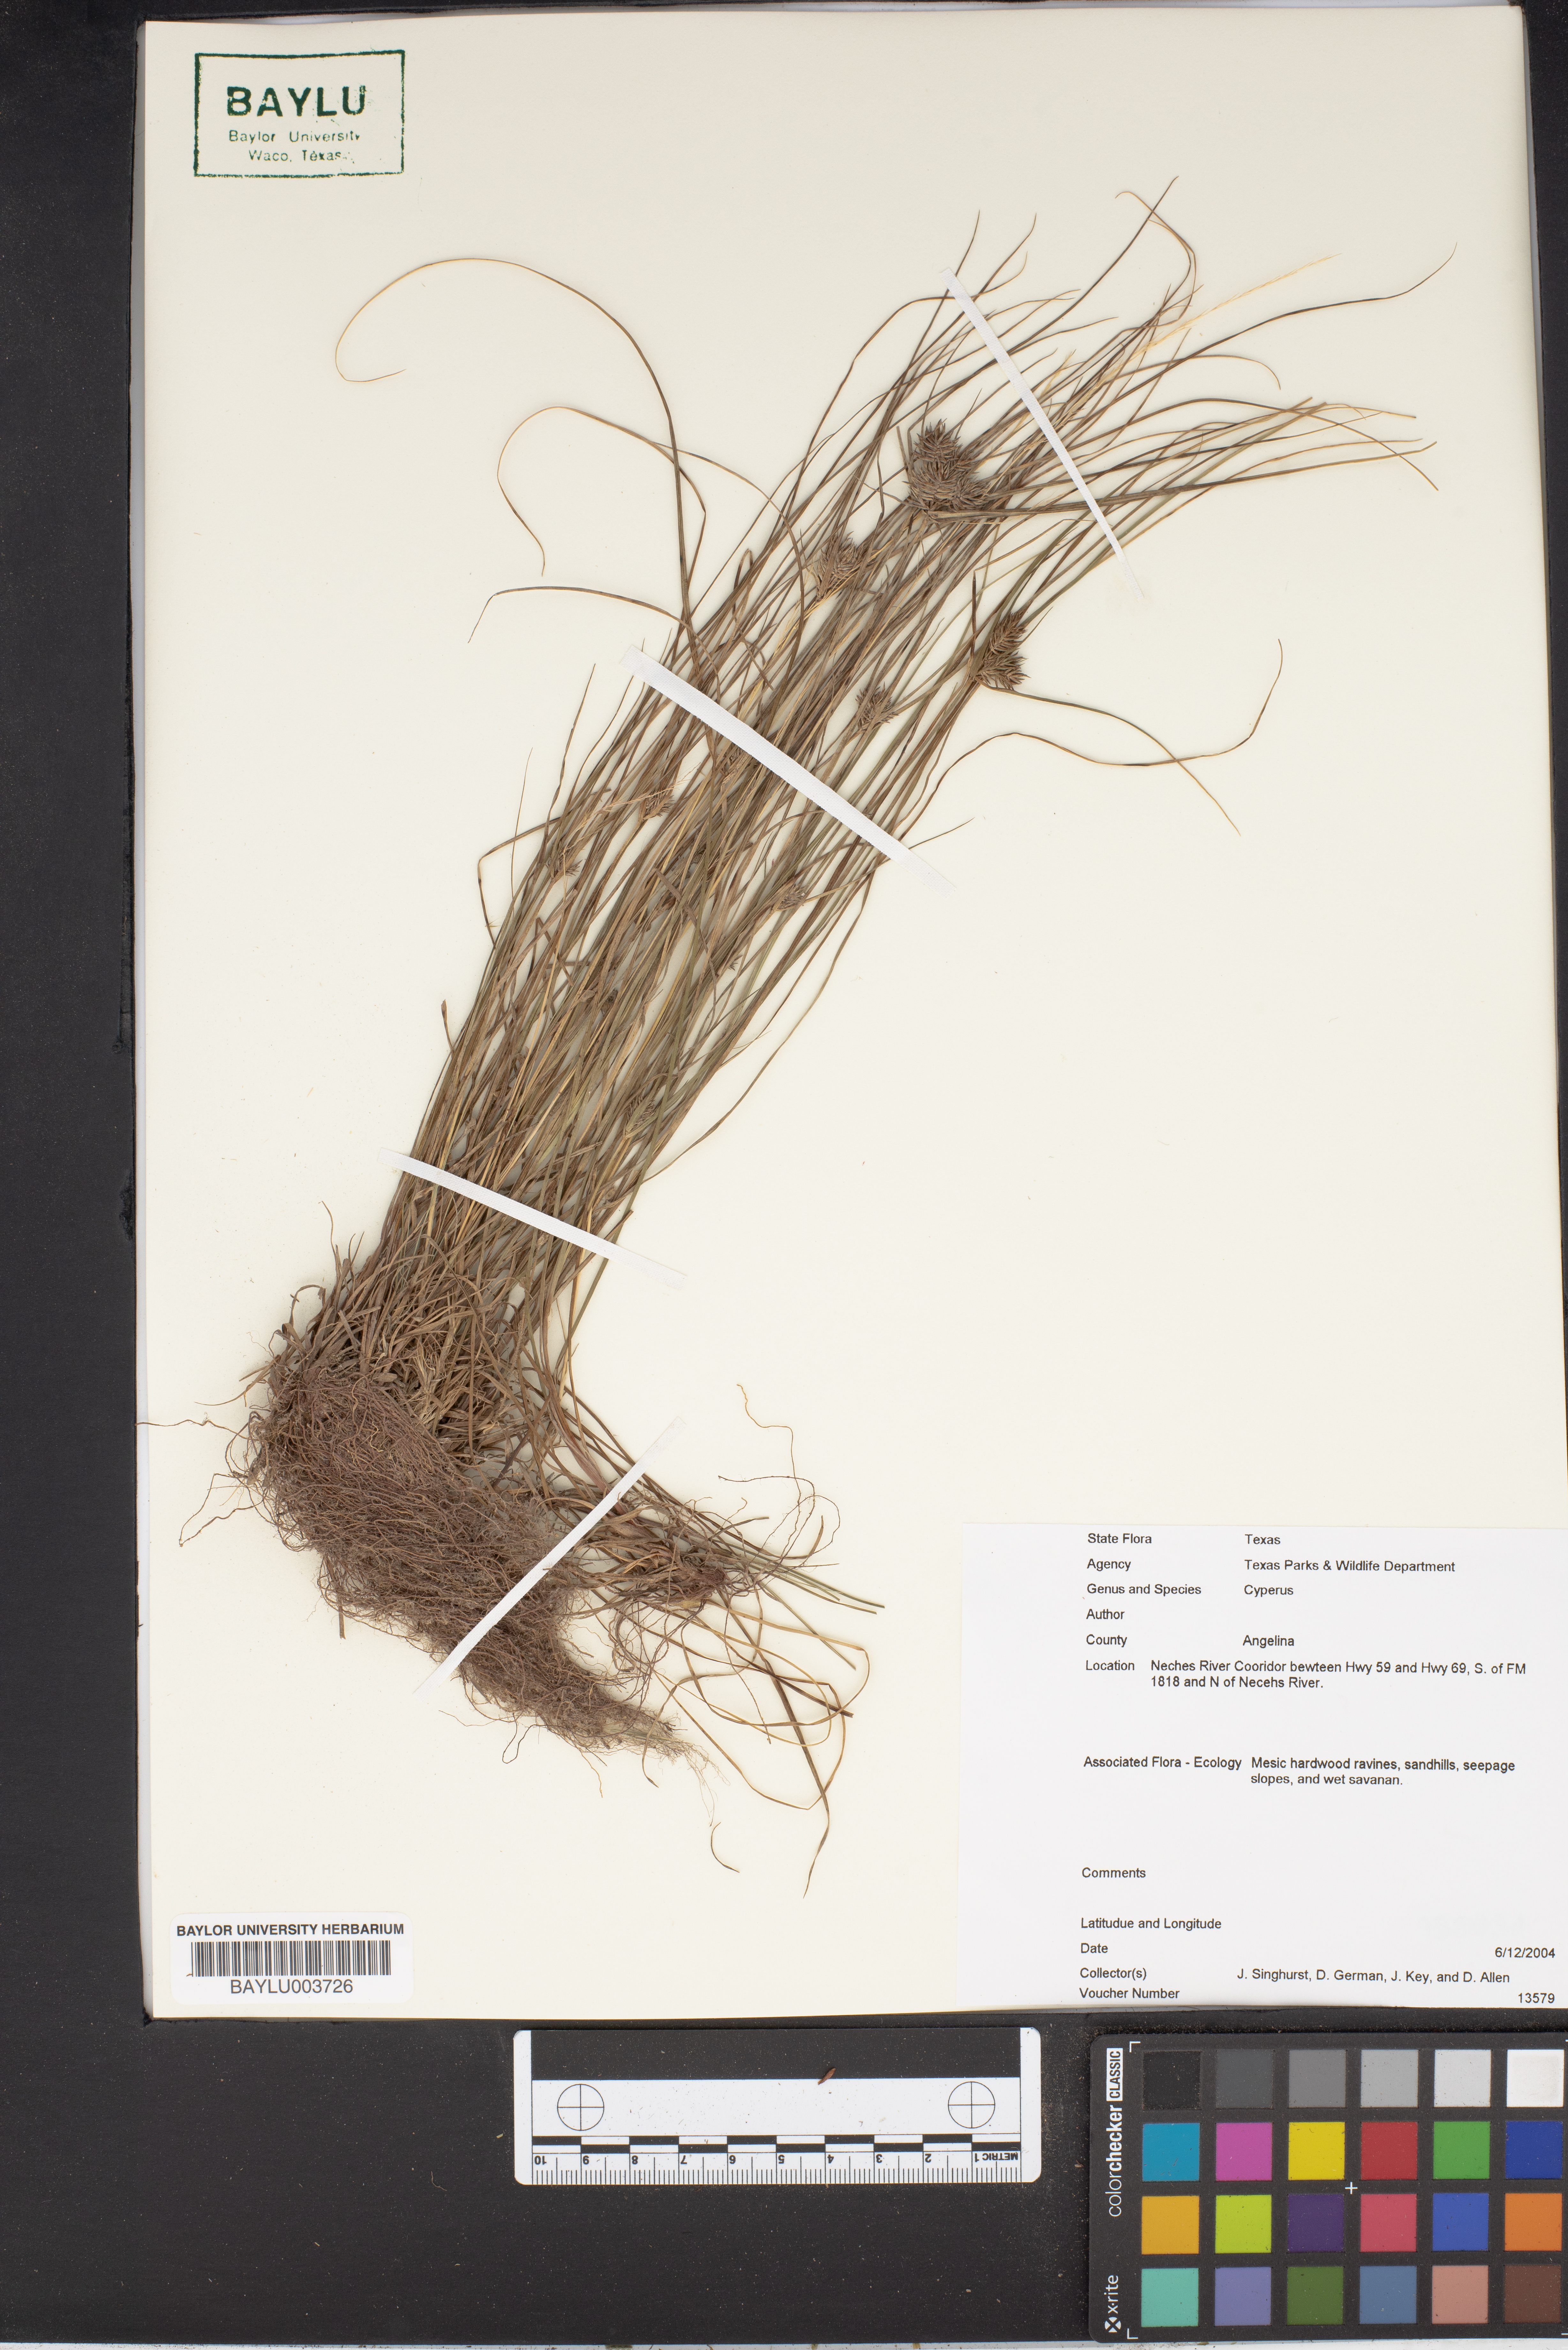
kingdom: Plantae
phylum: Tracheophyta
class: Liliopsida
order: Poales
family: Cyperaceae
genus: Cyperus
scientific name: Cyperus
